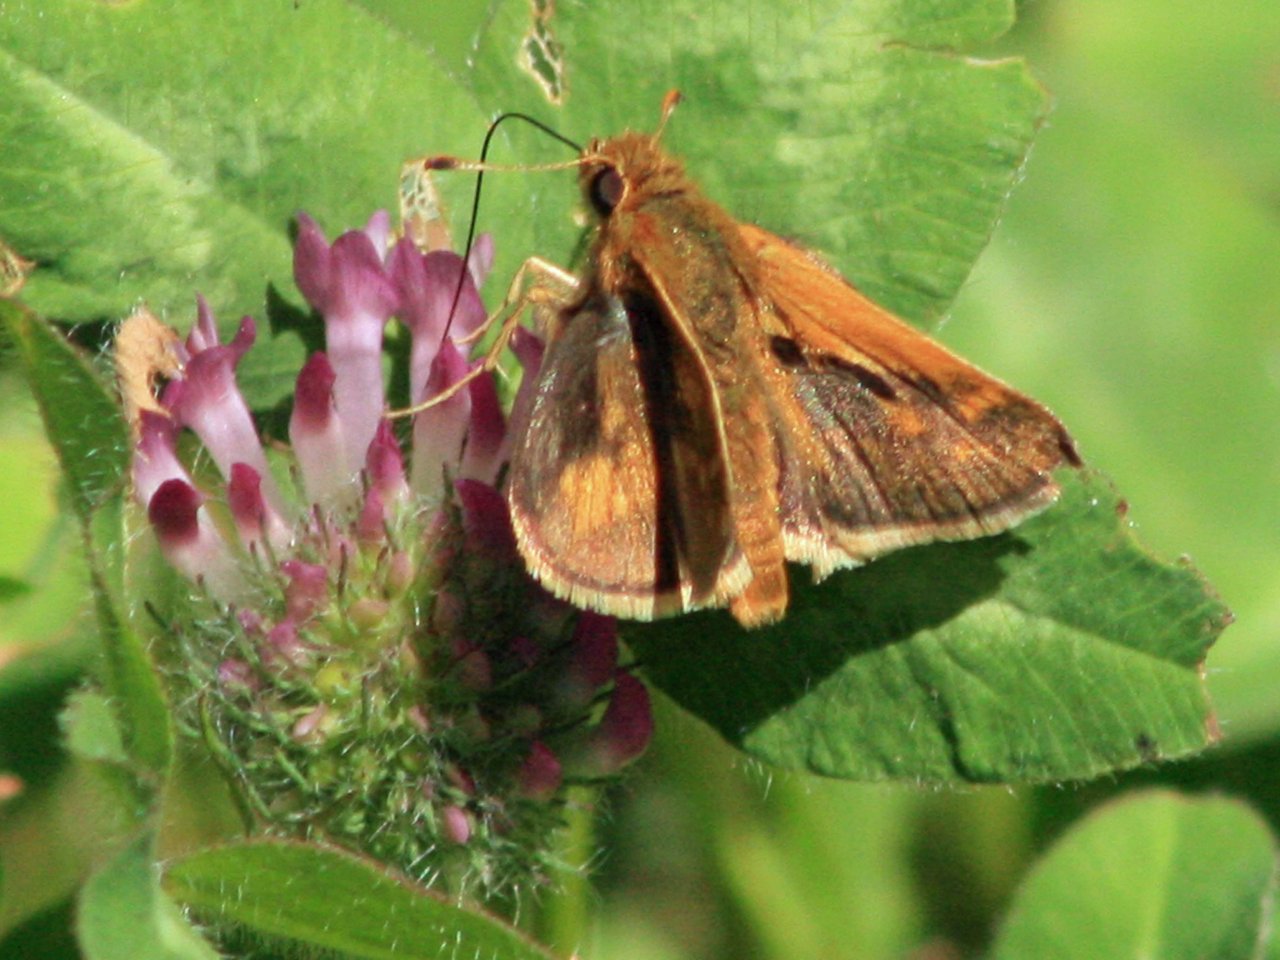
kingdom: Animalia
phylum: Arthropoda
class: Insecta
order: Lepidoptera
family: Hesperiidae
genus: Polites
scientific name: Polites coras
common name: Peck's Skipper
